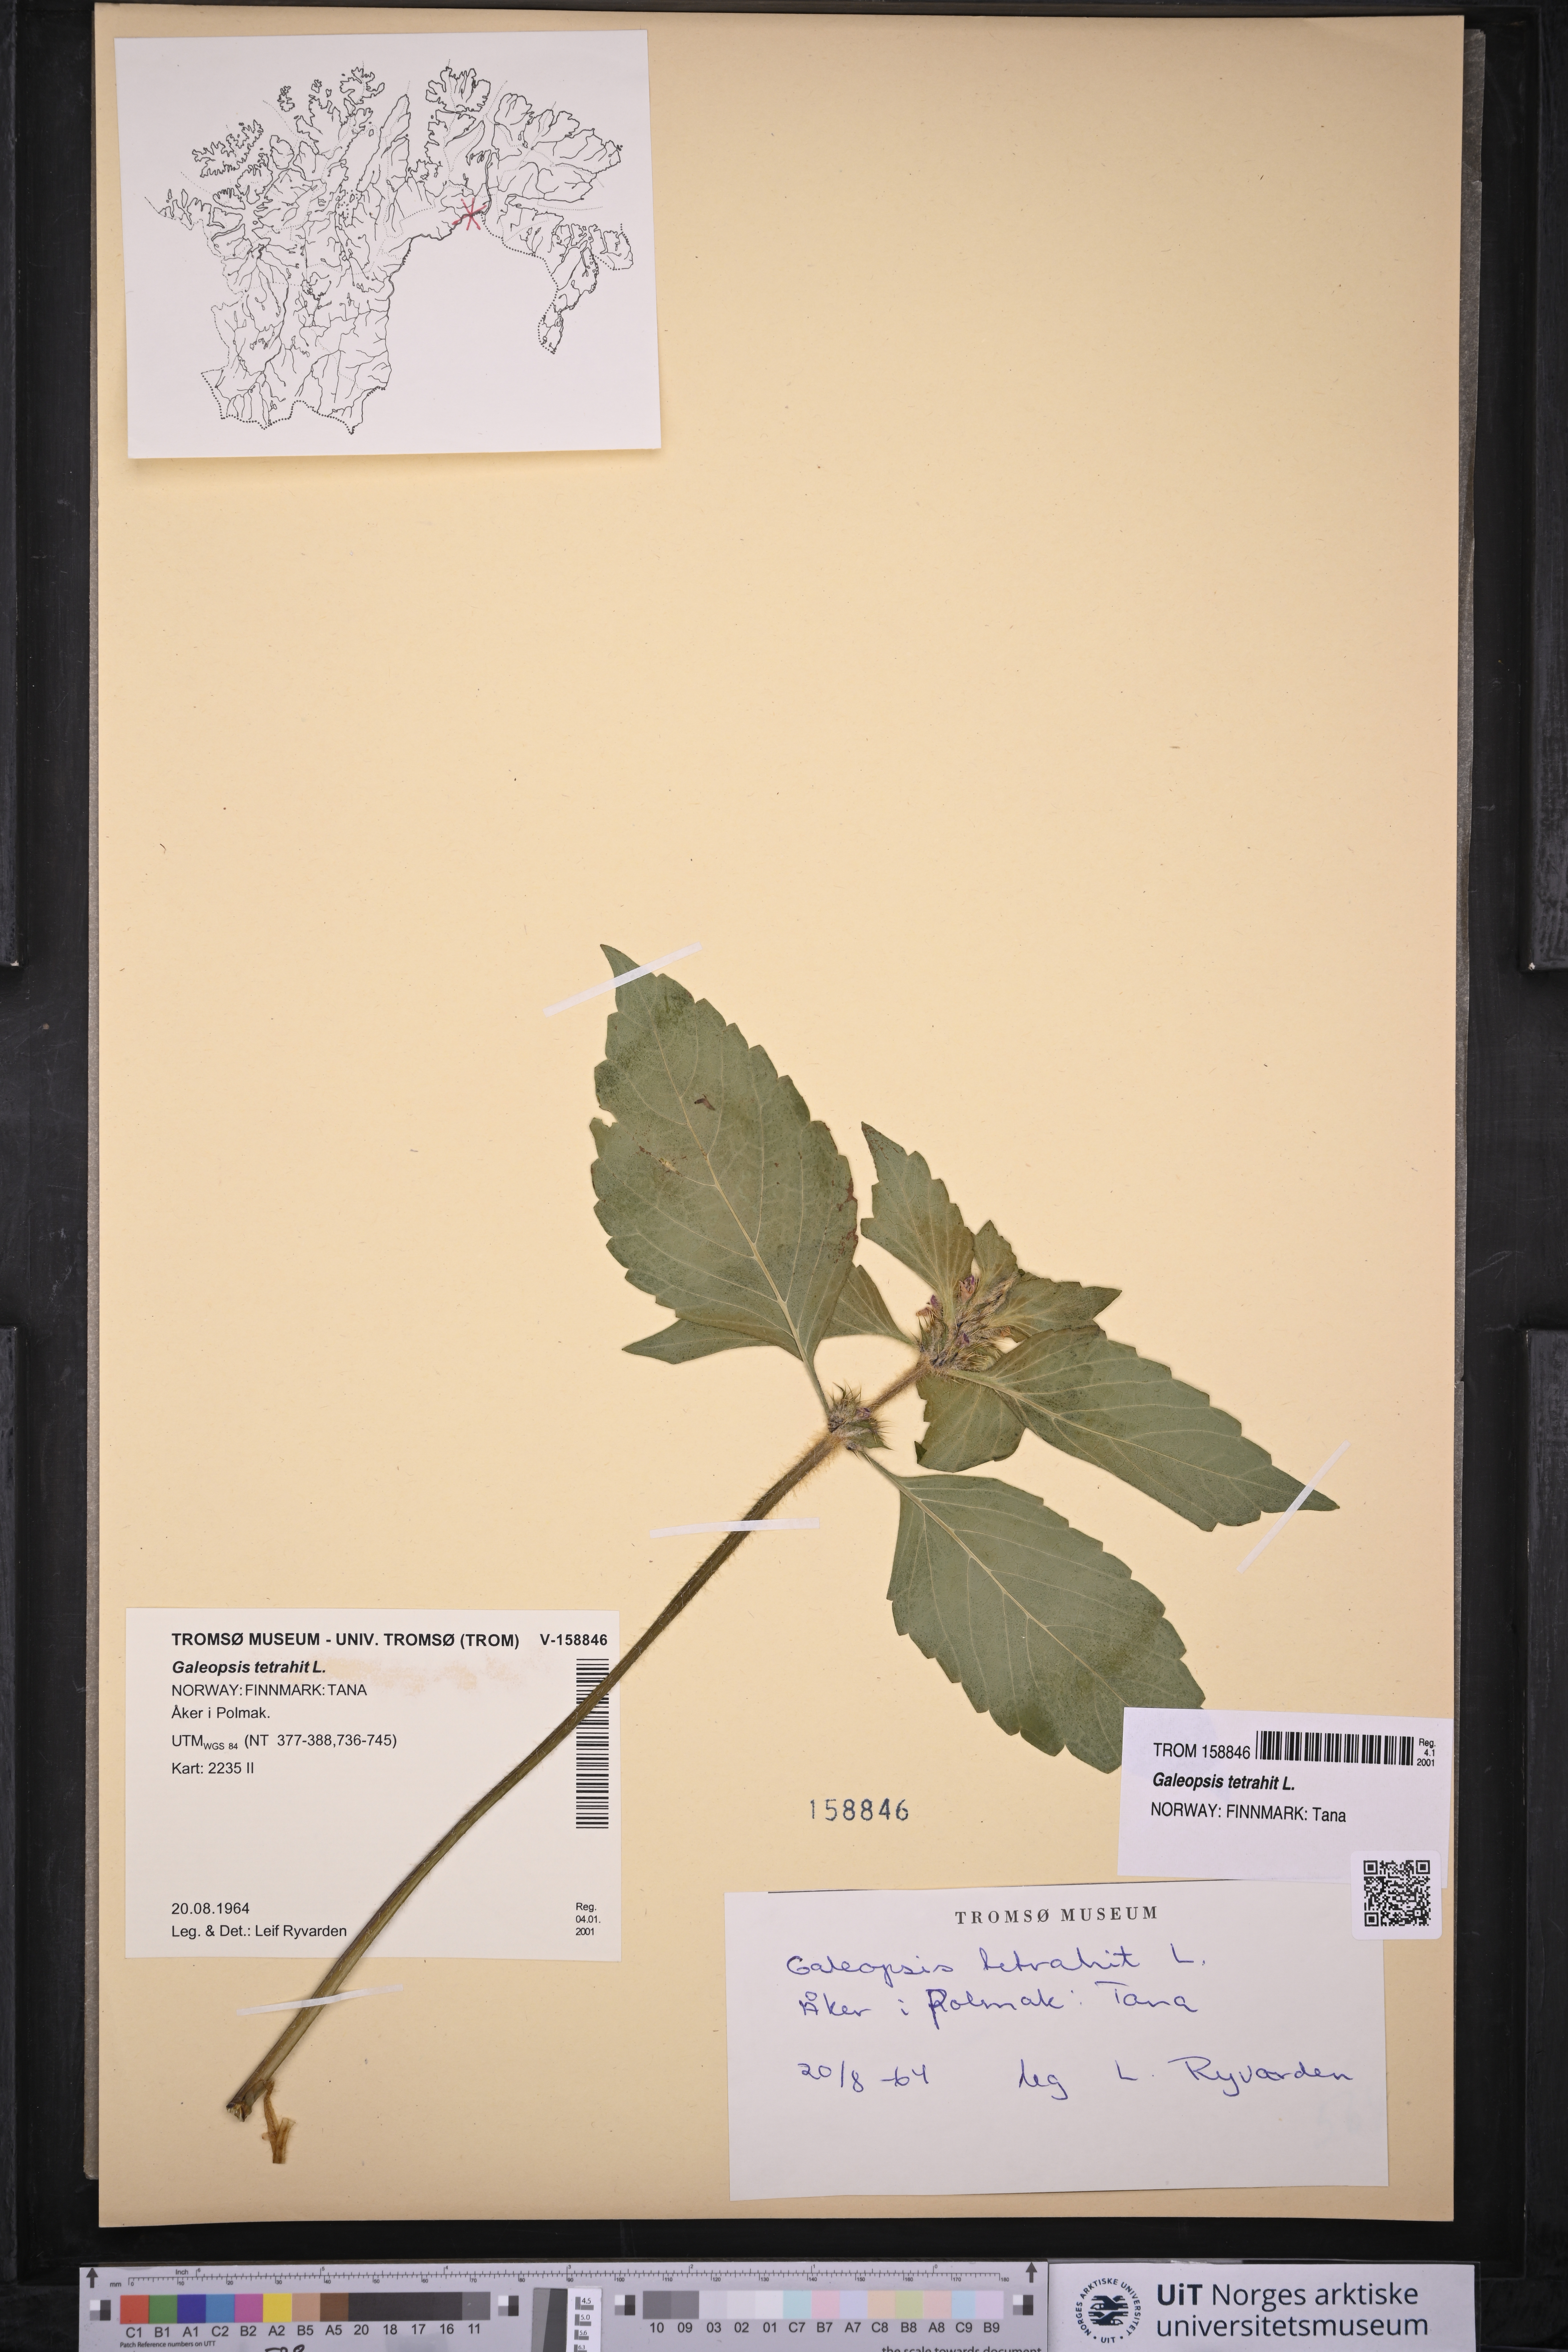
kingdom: Plantae
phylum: Tracheophyta
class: Magnoliopsida
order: Lamiales
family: Lamiaceae
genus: Galeopsis
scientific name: Galeopsis tetrahit
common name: Common hemp-nettle
